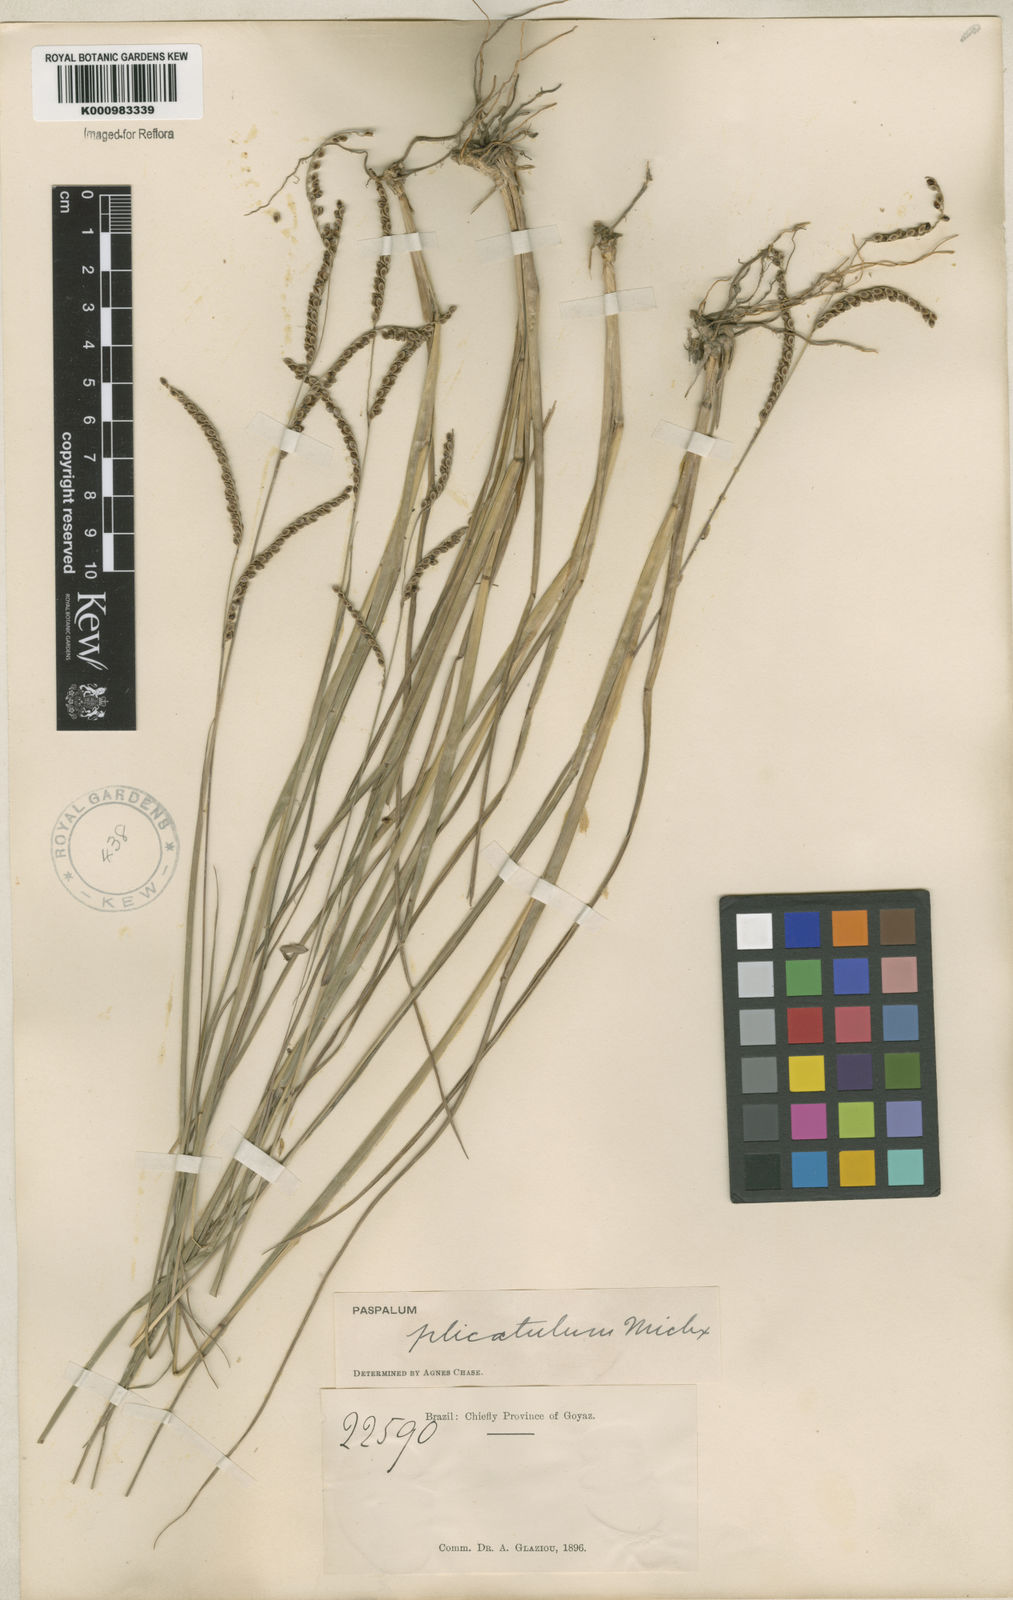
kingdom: Plantae
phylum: Tracheophyta
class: Liliopsida
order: Poales
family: Poaceae
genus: Paspalum
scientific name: Paspalum plicatulum
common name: Top paspalum
